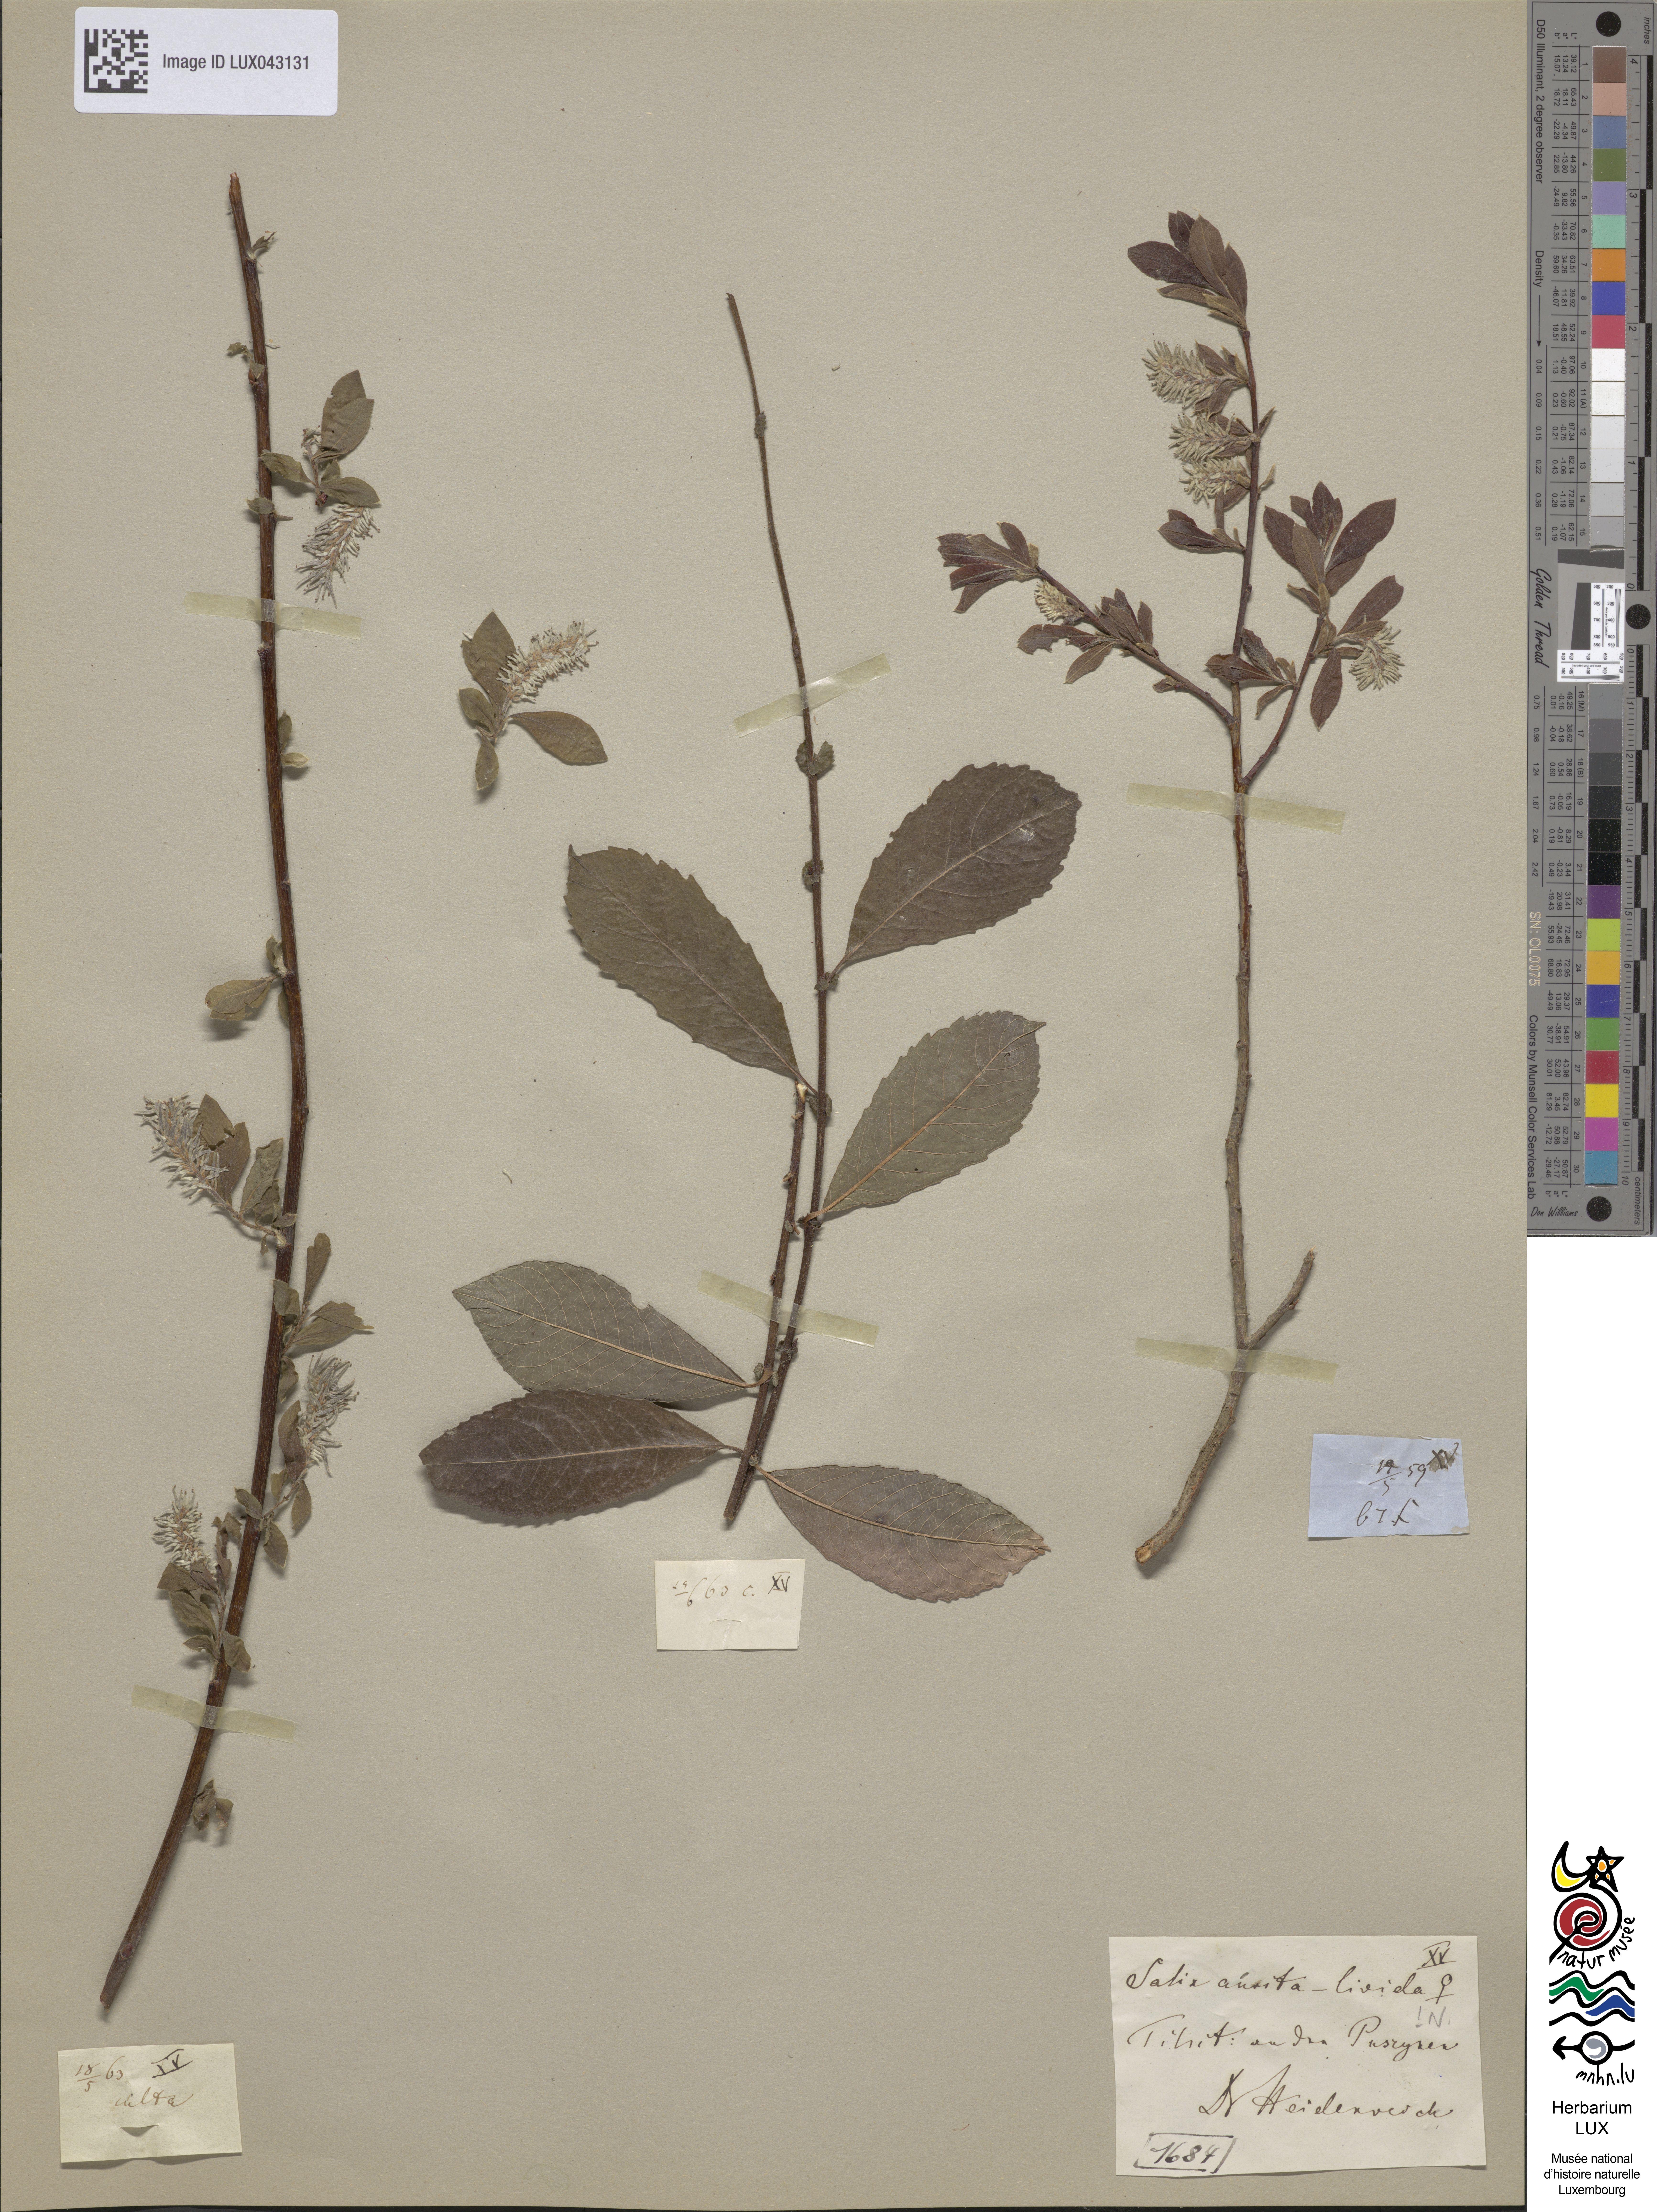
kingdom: Plantae
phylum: Tracheophyta
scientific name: Tracheophyta
